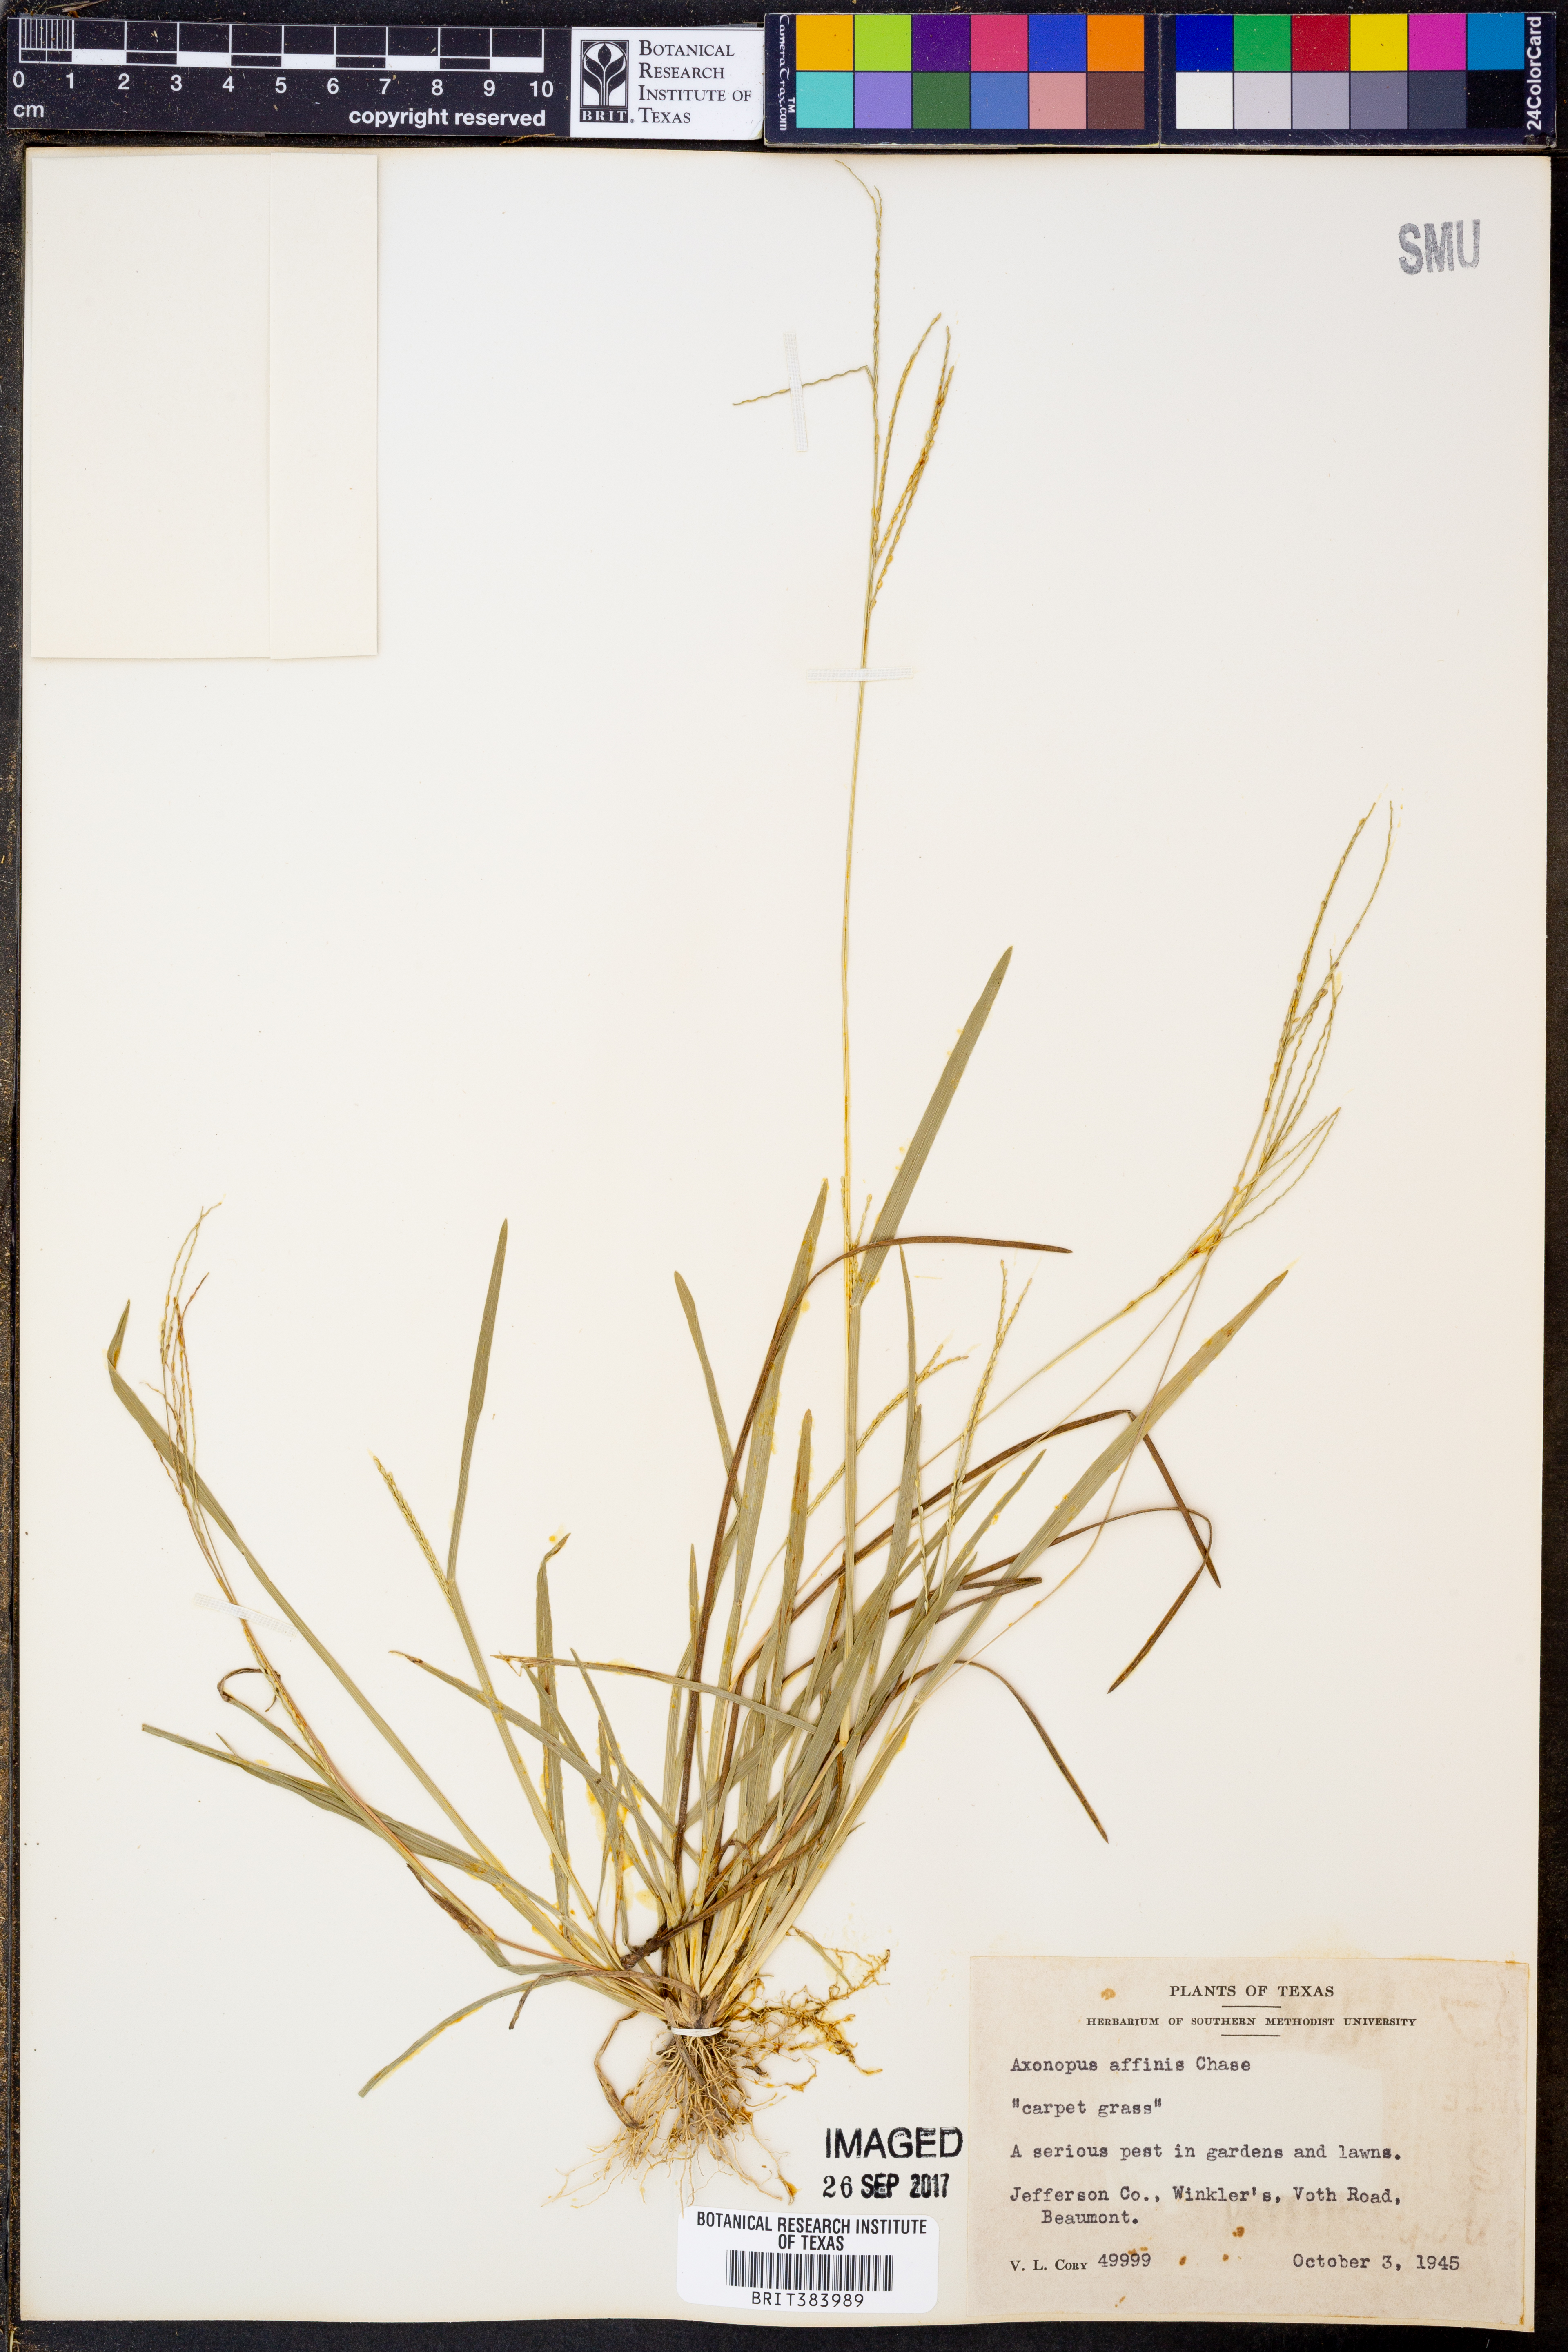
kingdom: Plantae
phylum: Tracheophyta
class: Liliopsida
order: Poales
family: Poaceae
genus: Axonopus
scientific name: Axonopus fissifolius
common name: Common carpetgrass
